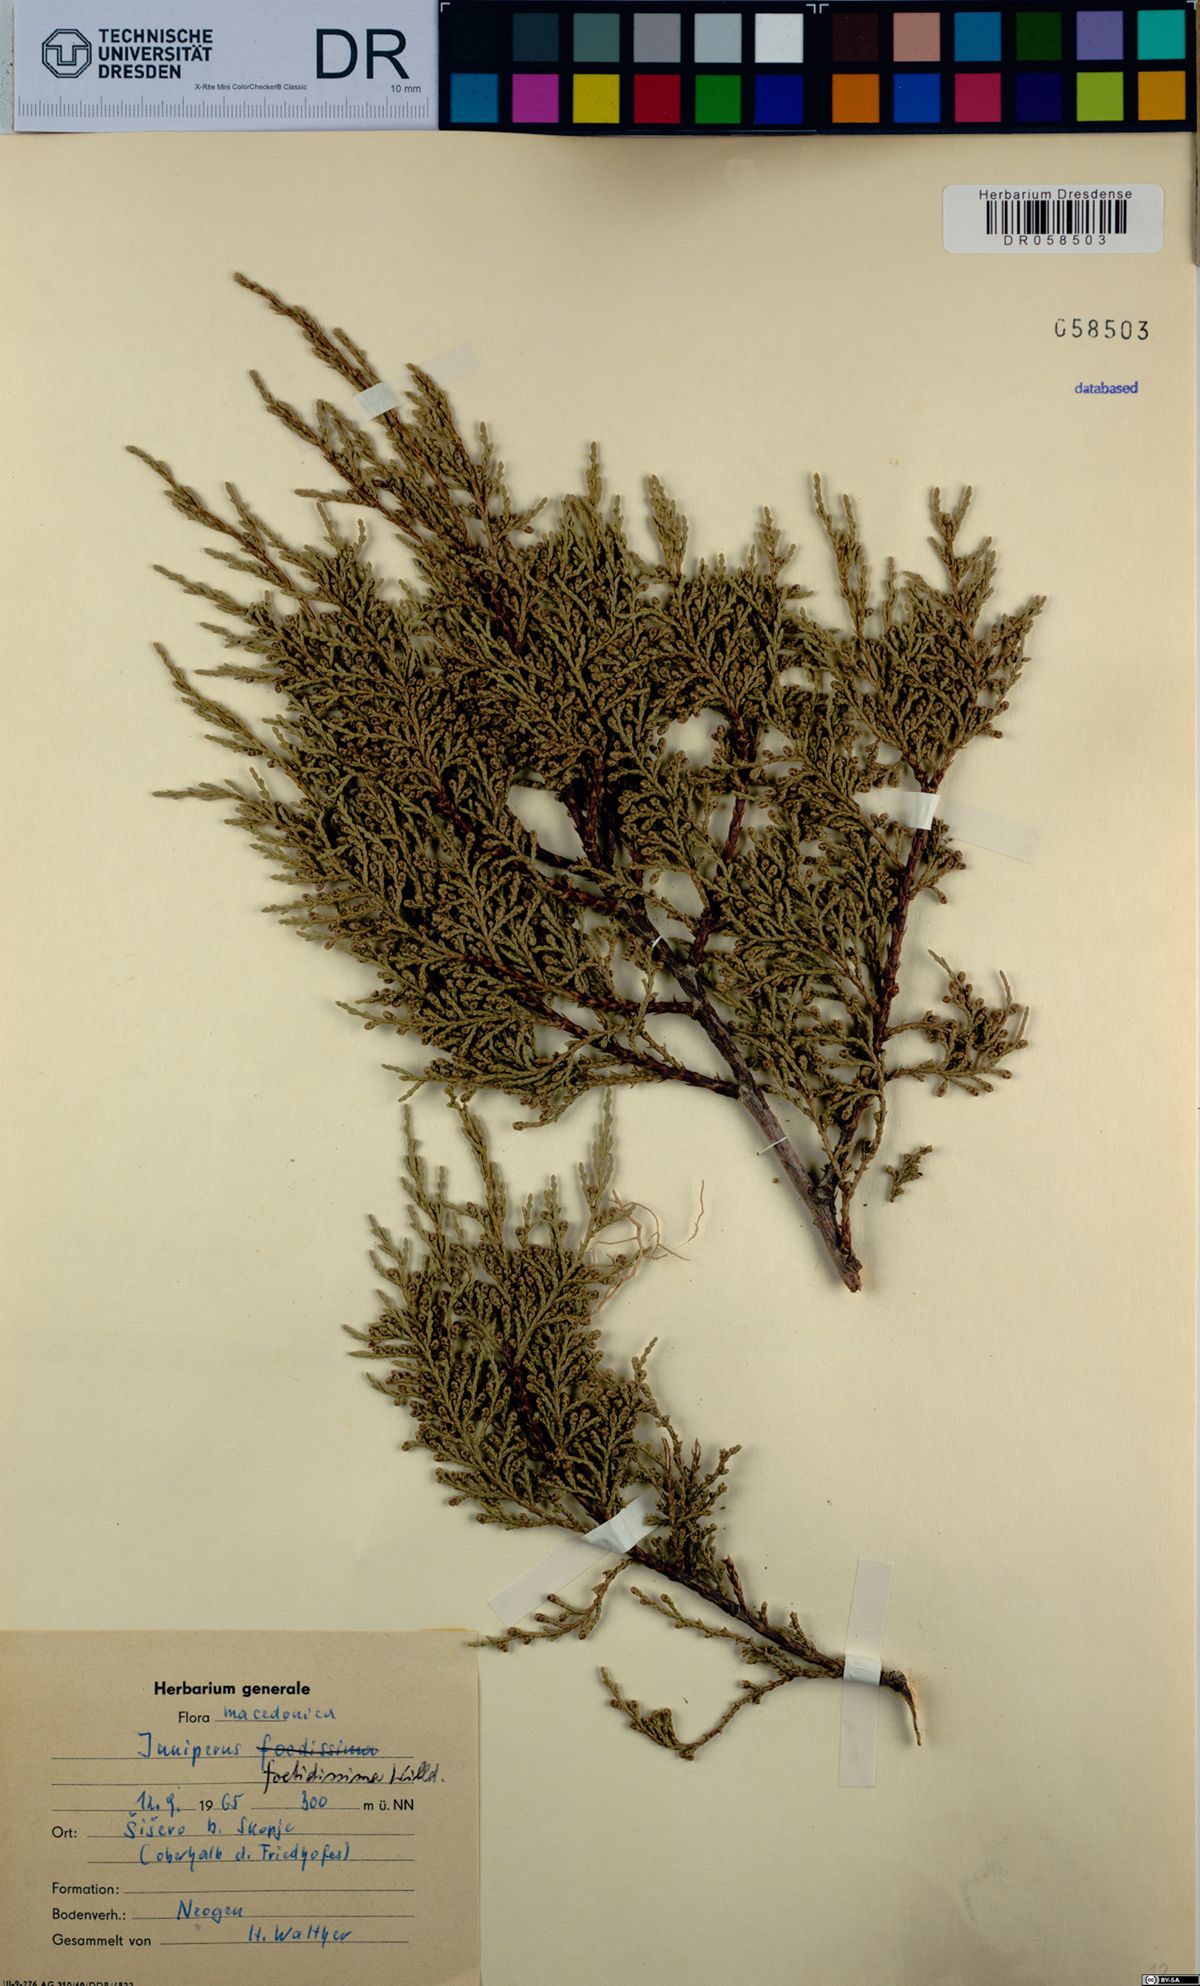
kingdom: Plantae
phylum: Tracheophyta
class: Pinopsida
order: Pinales
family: Cupressaceae
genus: Juniperus
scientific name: Juniperus foetidissima
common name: Stinking juniper
